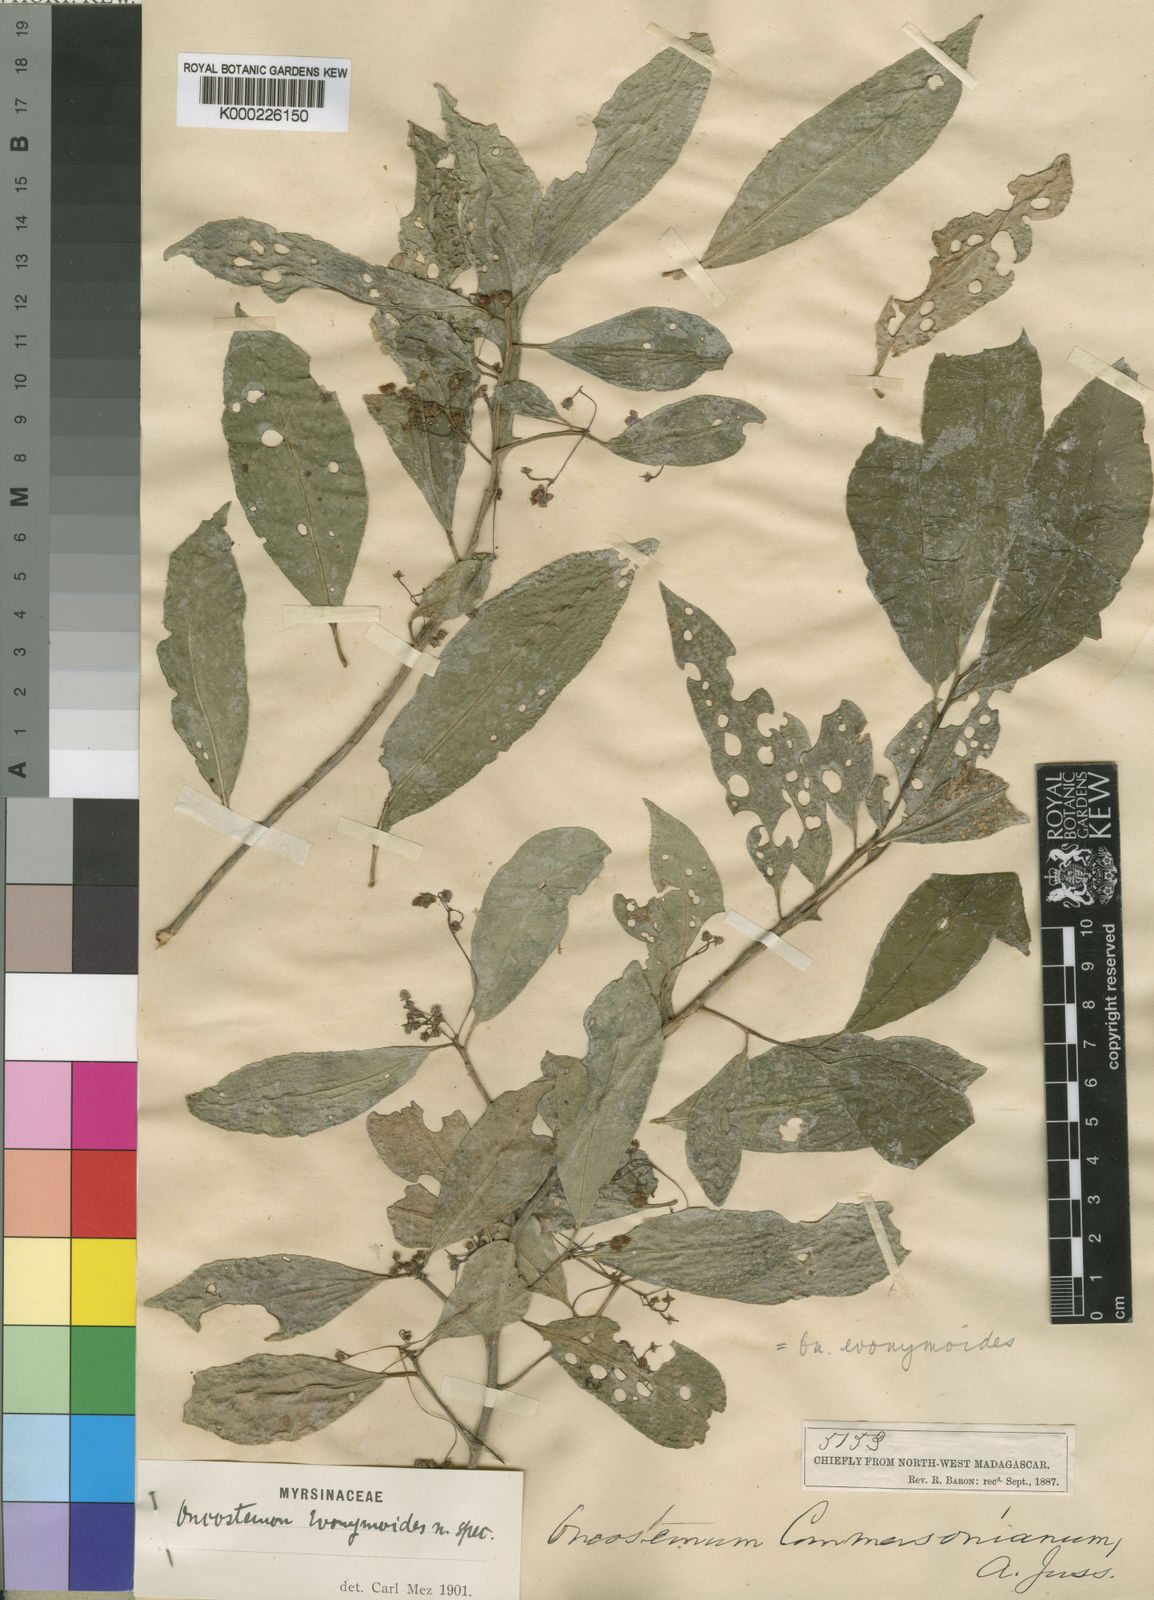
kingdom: Plantae
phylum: Tracheophyta
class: Magnoliopsida
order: Ericales
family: Primulaceae
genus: Oncostemum
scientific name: Oncostemum evonymoides
